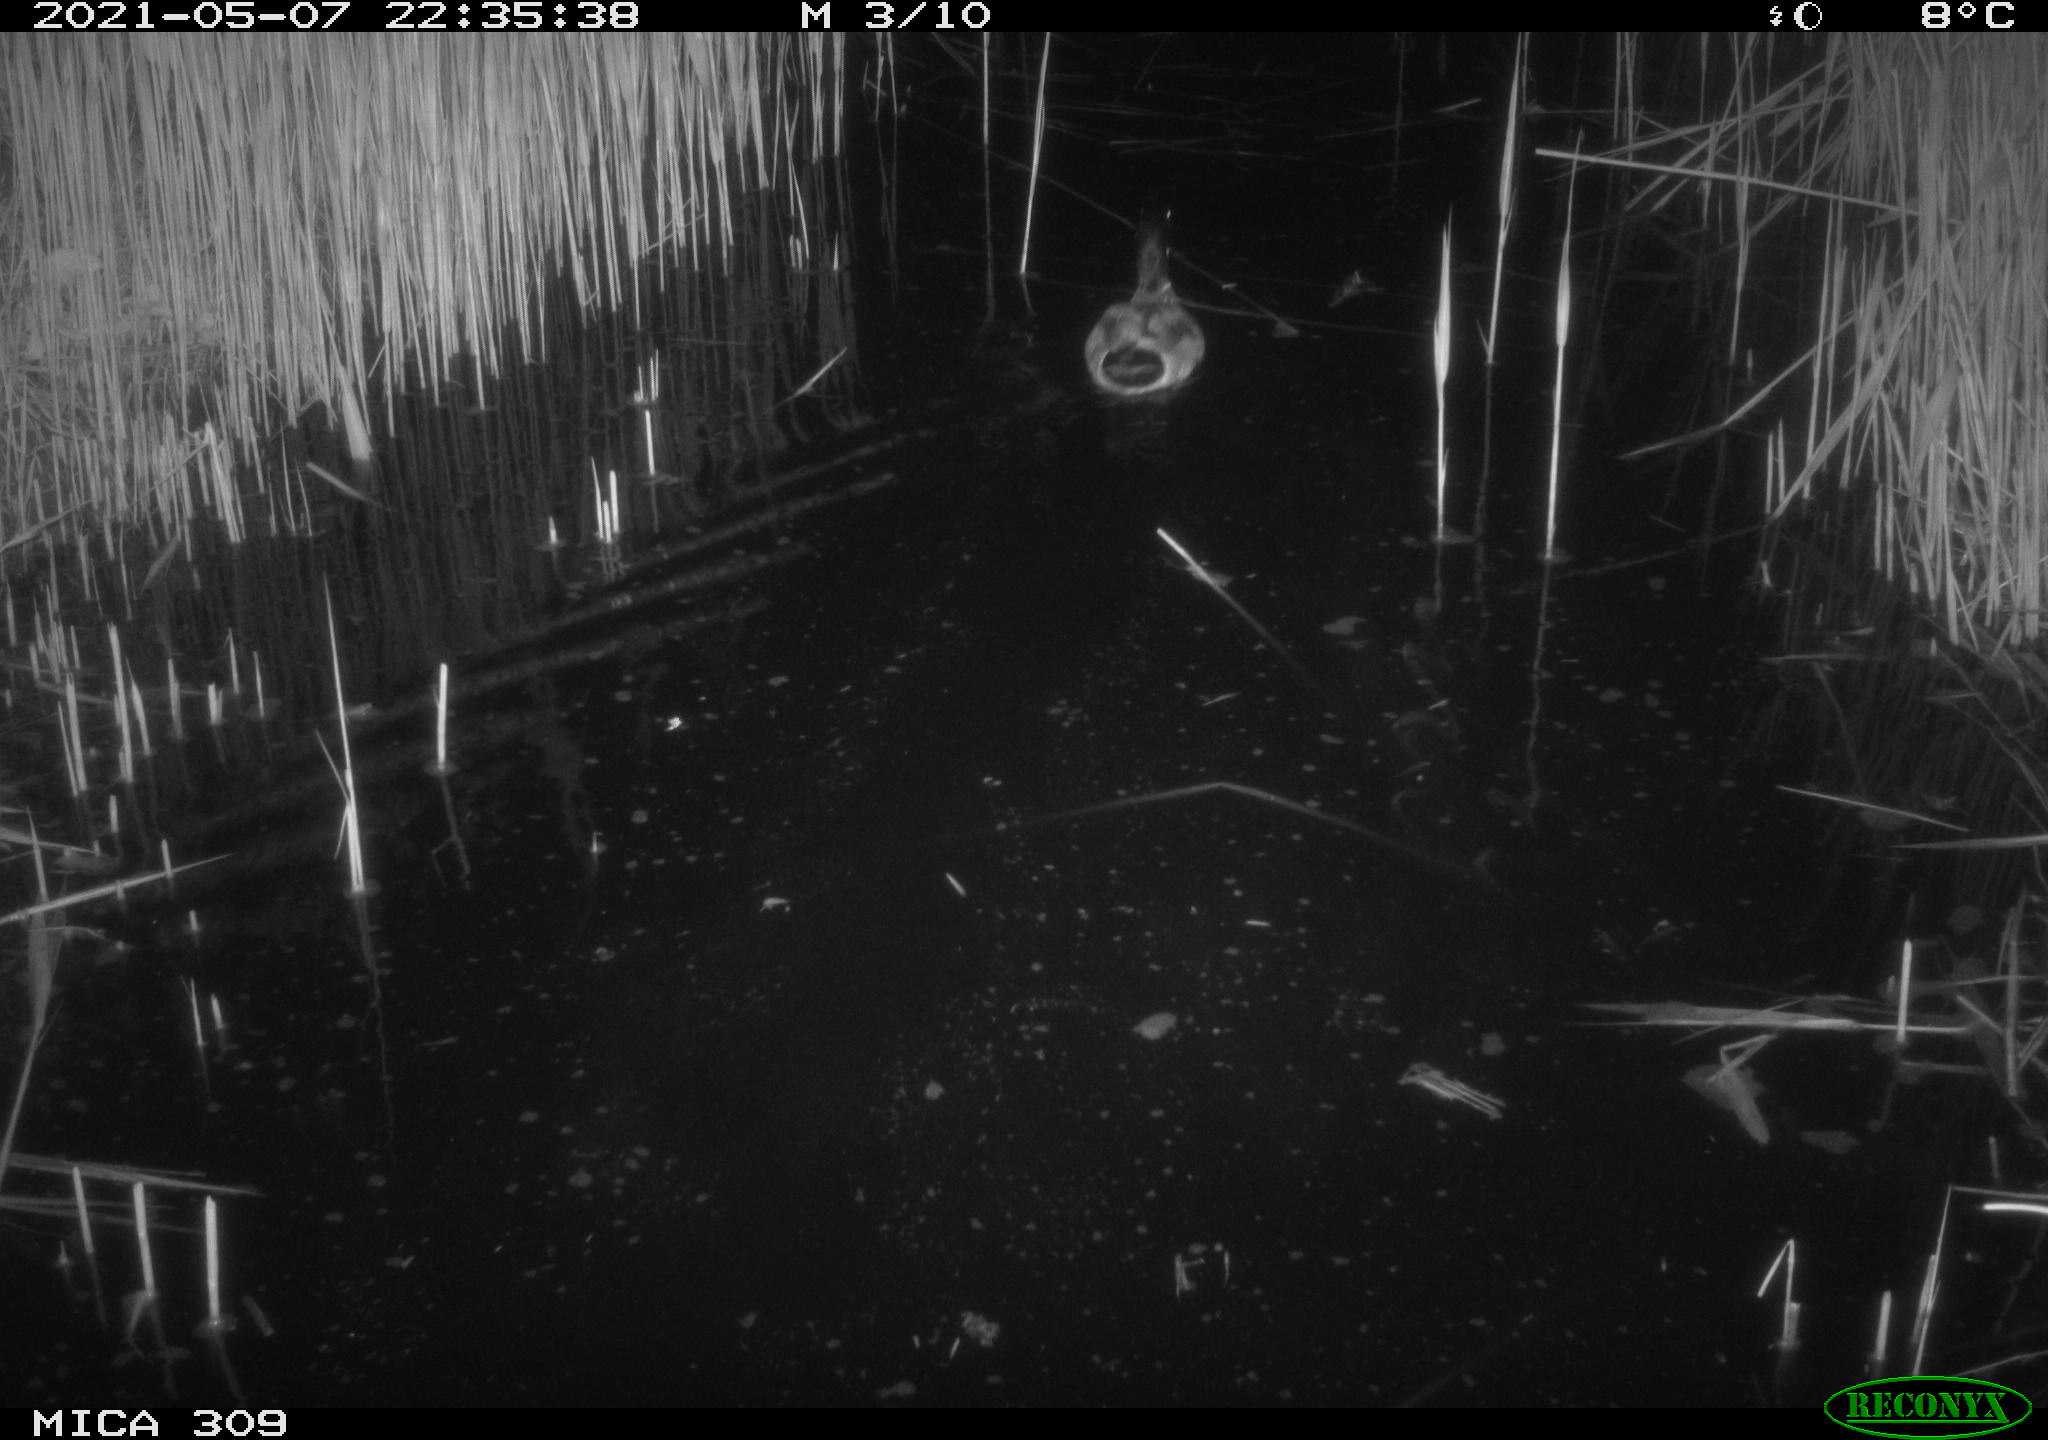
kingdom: Animalia
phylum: Chordata
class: Aves
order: Anseriformes
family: Anatidae
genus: Anas
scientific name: Anas platyrhynchos
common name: Mallard
